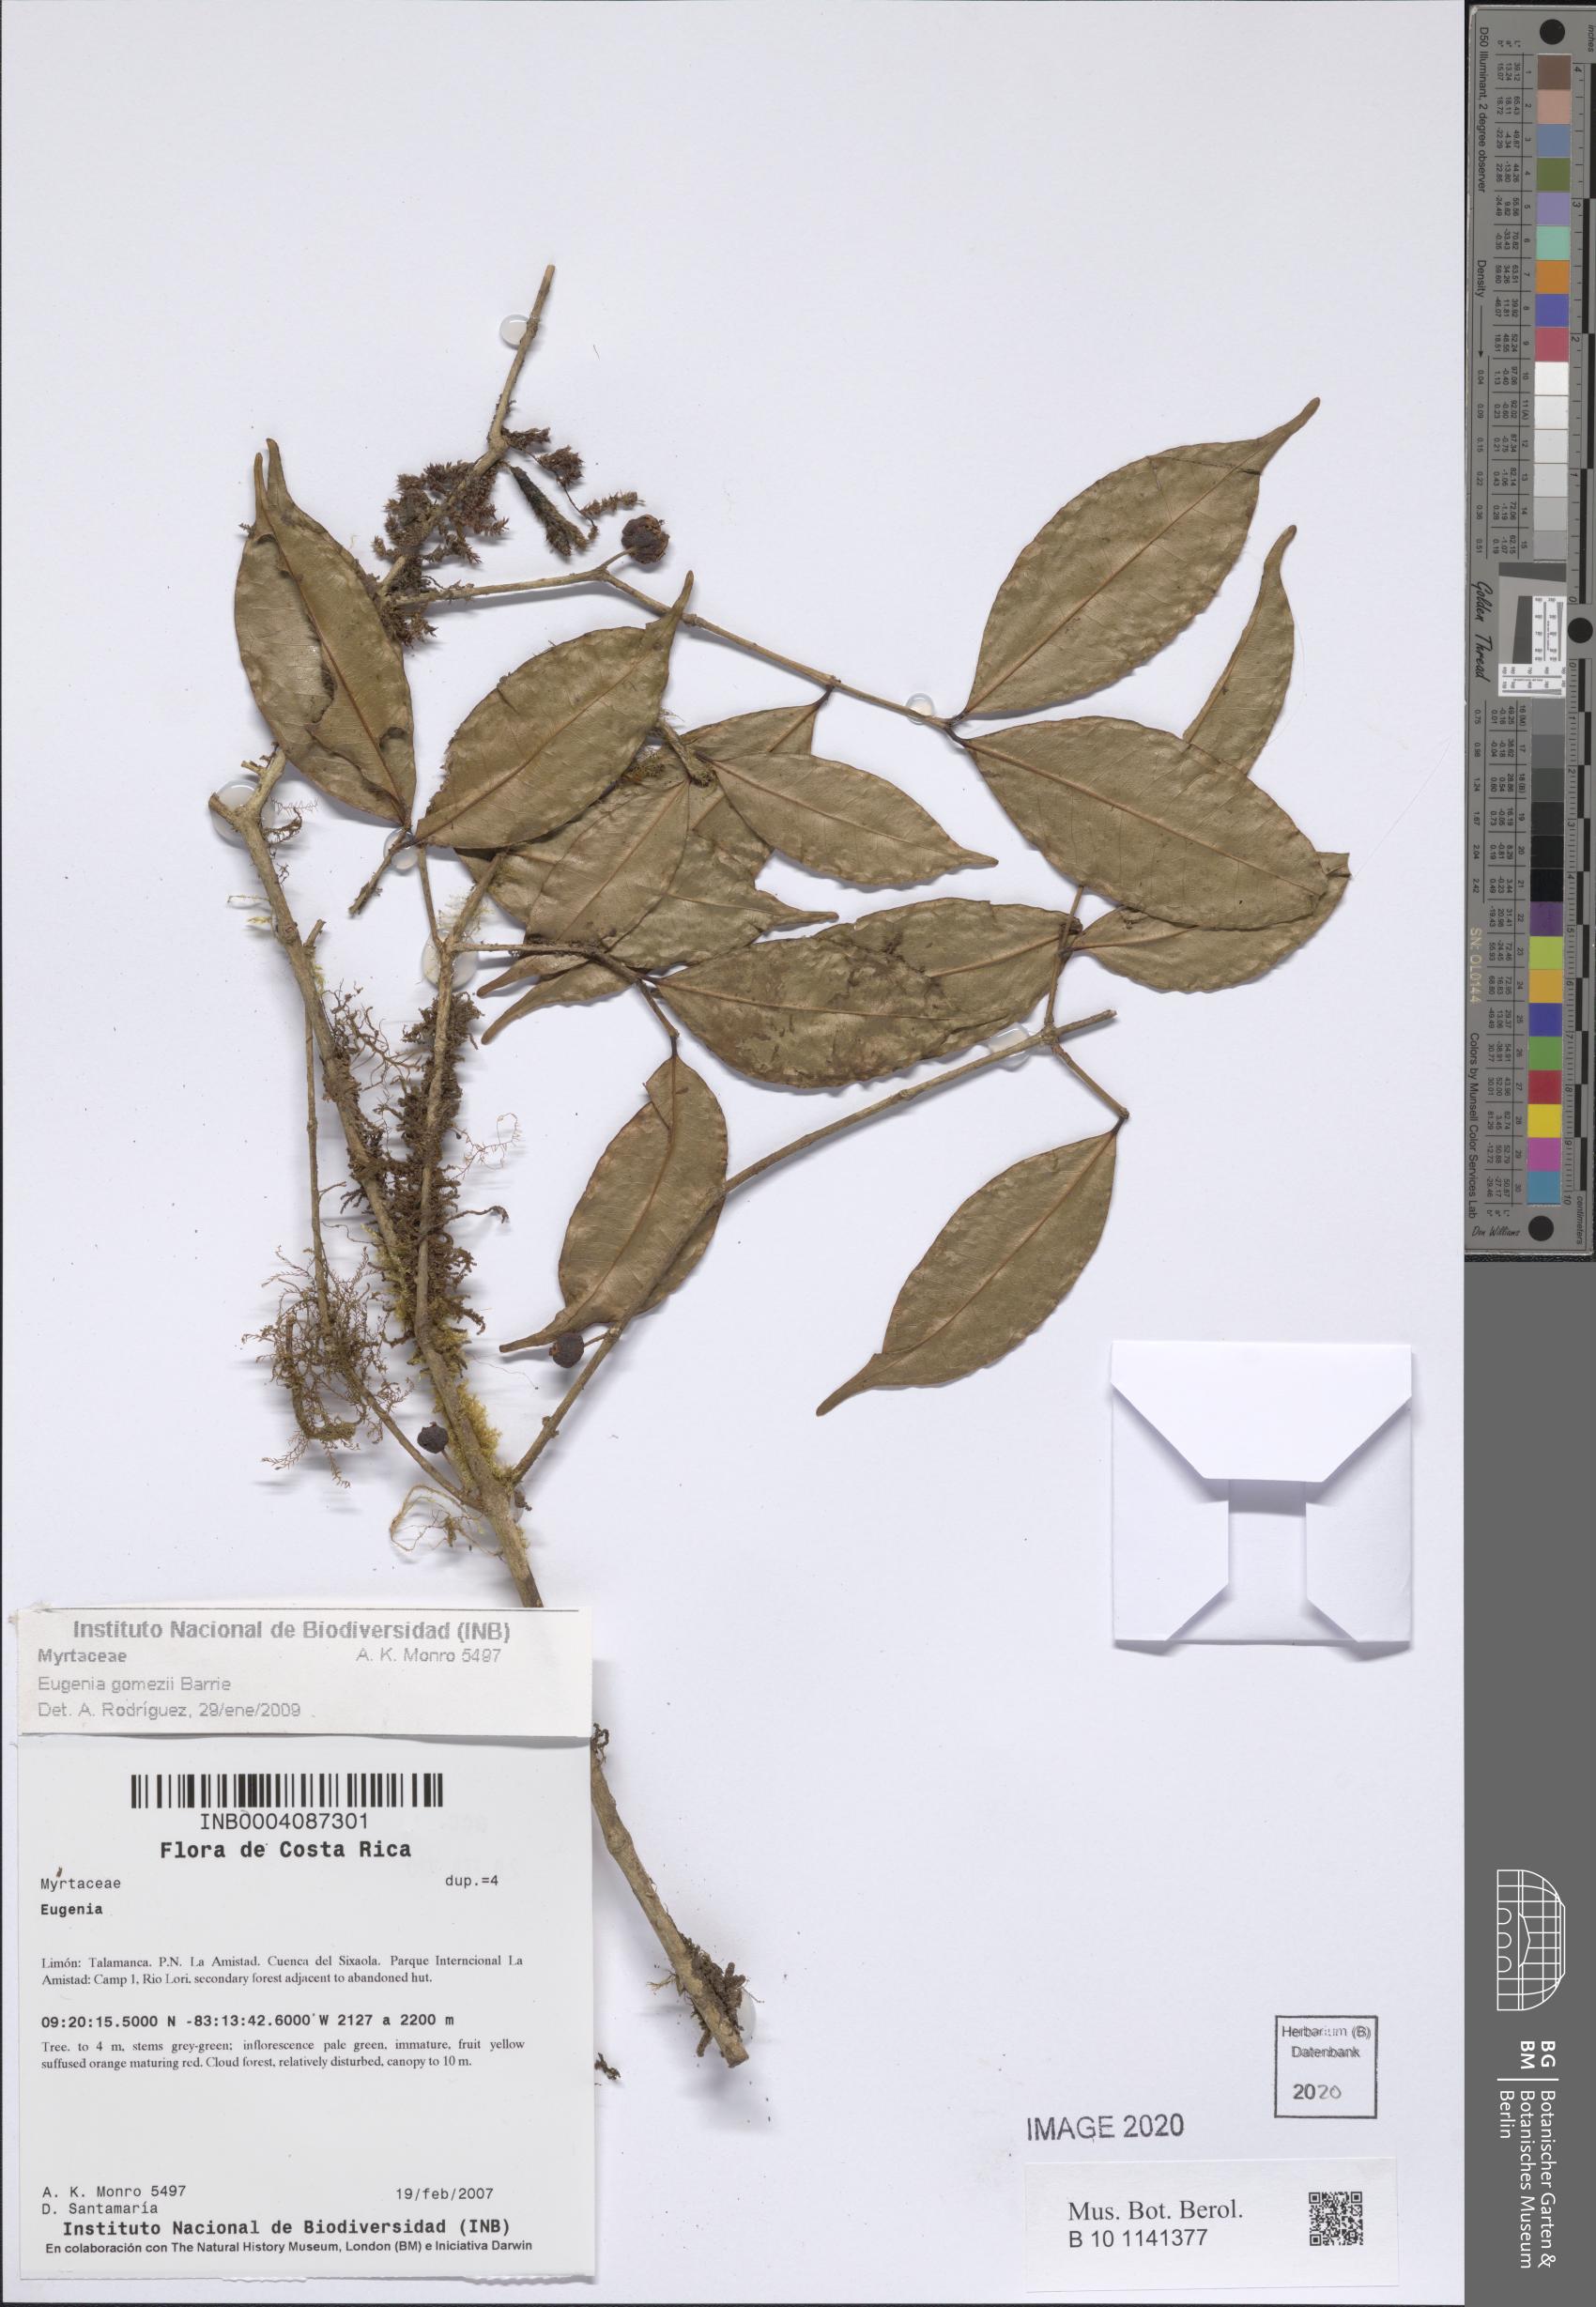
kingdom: Plantae
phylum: Tracheophyta
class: Magnoliopsida
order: Myrtales
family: Myrtaceae
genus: Eugenia
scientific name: Eugenia gomezii
